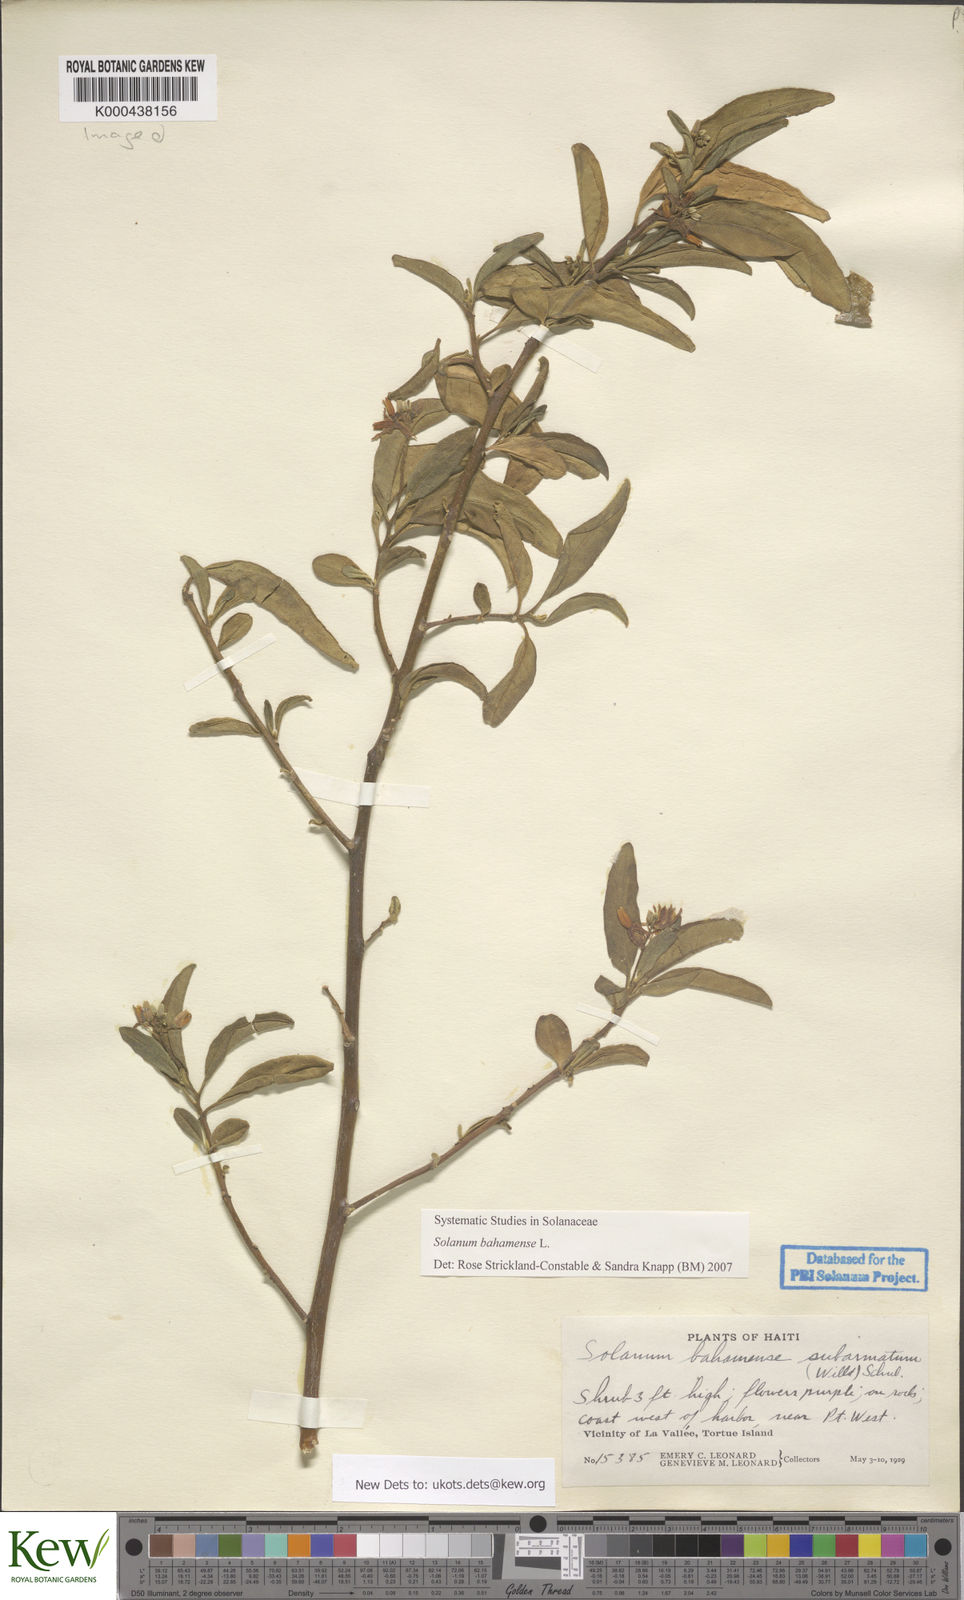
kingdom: Plantae
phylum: Tracheophyta
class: Magnoliopsida
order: Solanales
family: Solanaceae
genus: Solanum
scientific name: Solanum bahamense
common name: Canker-berry
